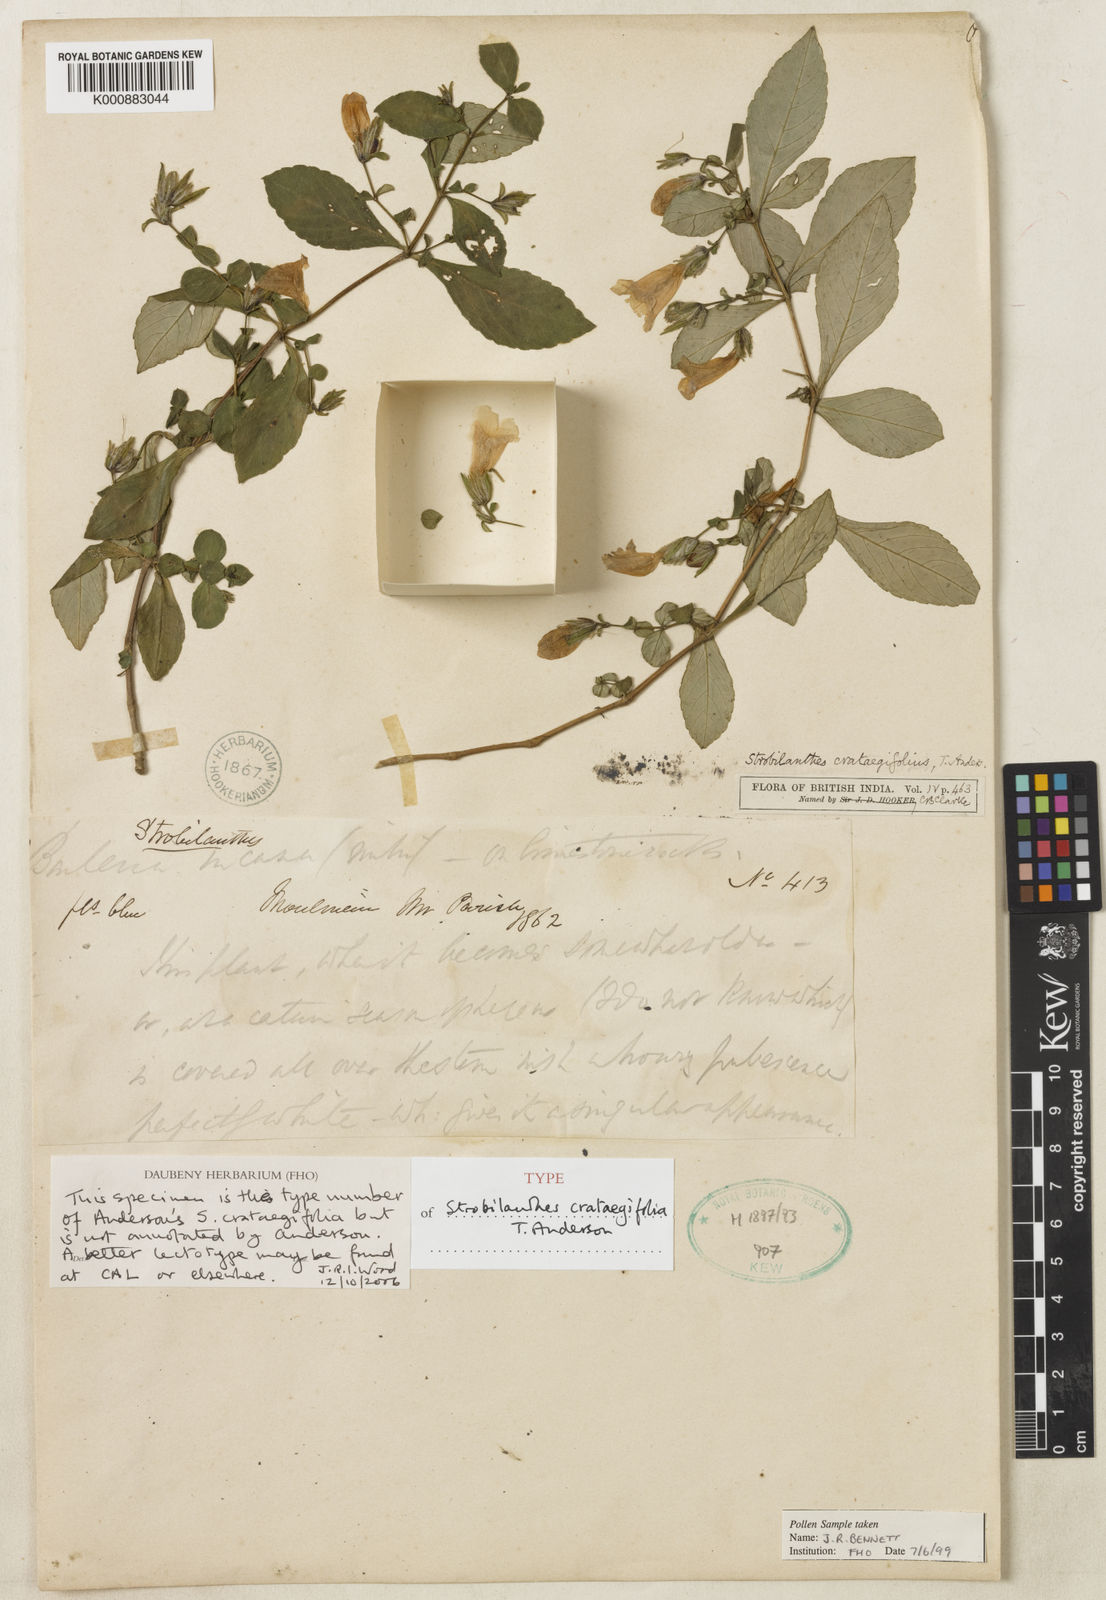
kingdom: Plantae
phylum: Tracheophyta
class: Magnoliopsida
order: Lamiales
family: Acanthaceae
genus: Strobilanthes
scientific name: Strobilanthes crataegifolia
